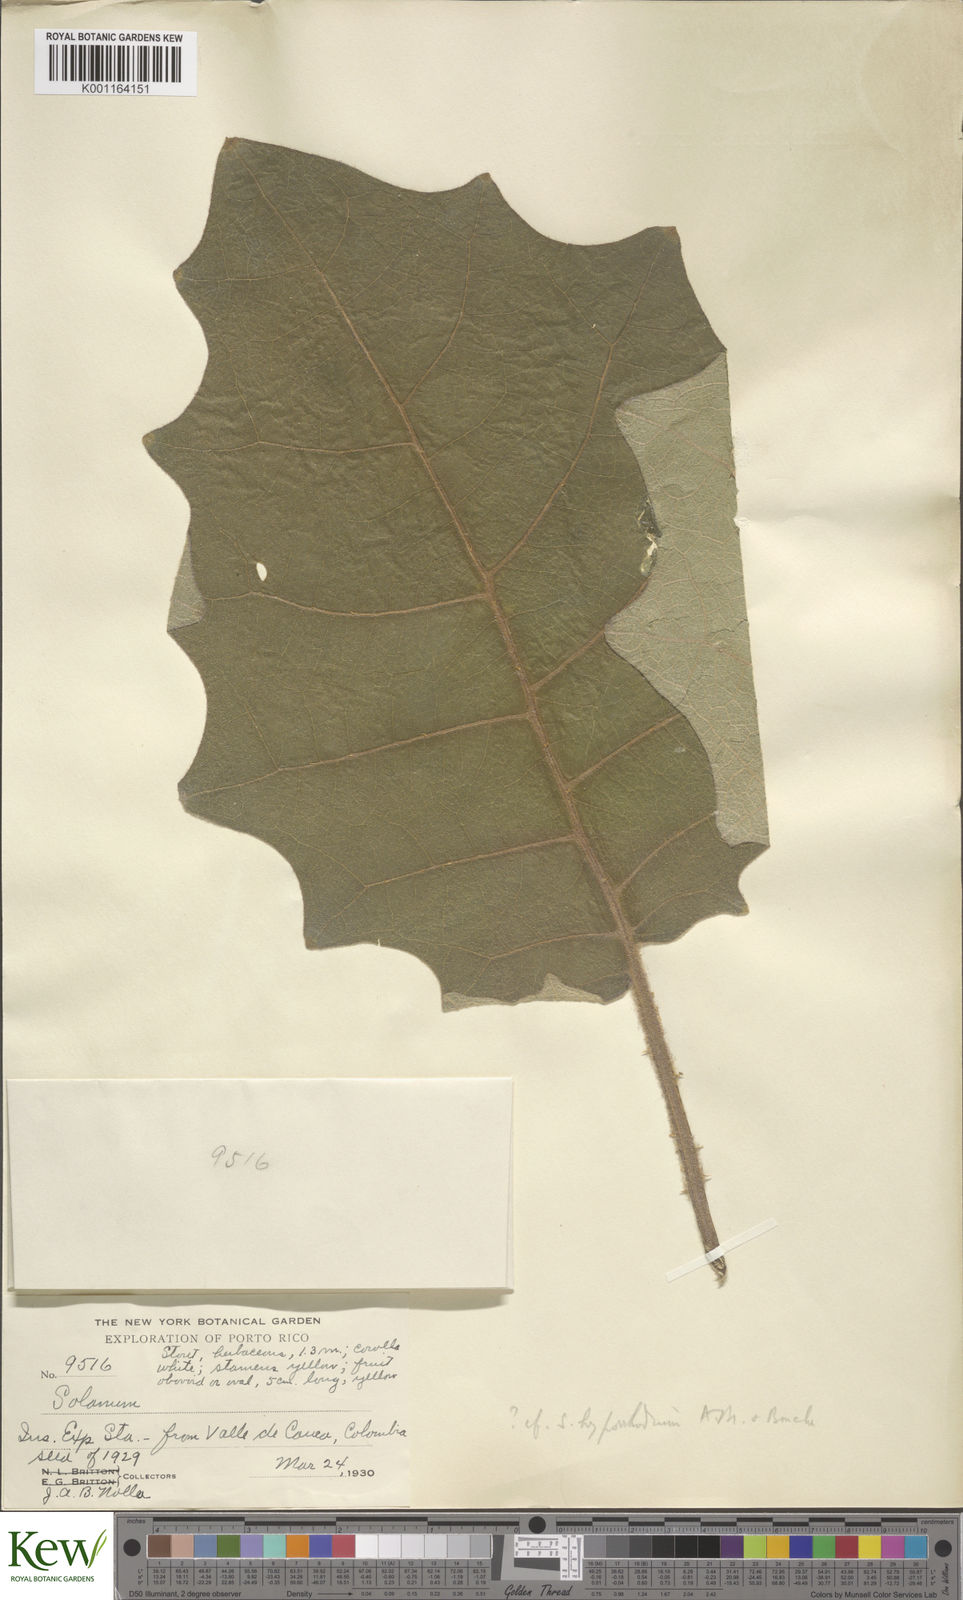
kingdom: Plantae
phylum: Tracheophyta
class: Magnoliopsida
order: Solanales
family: Solanaceae
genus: Solanum
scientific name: Solanum hyporhodium
